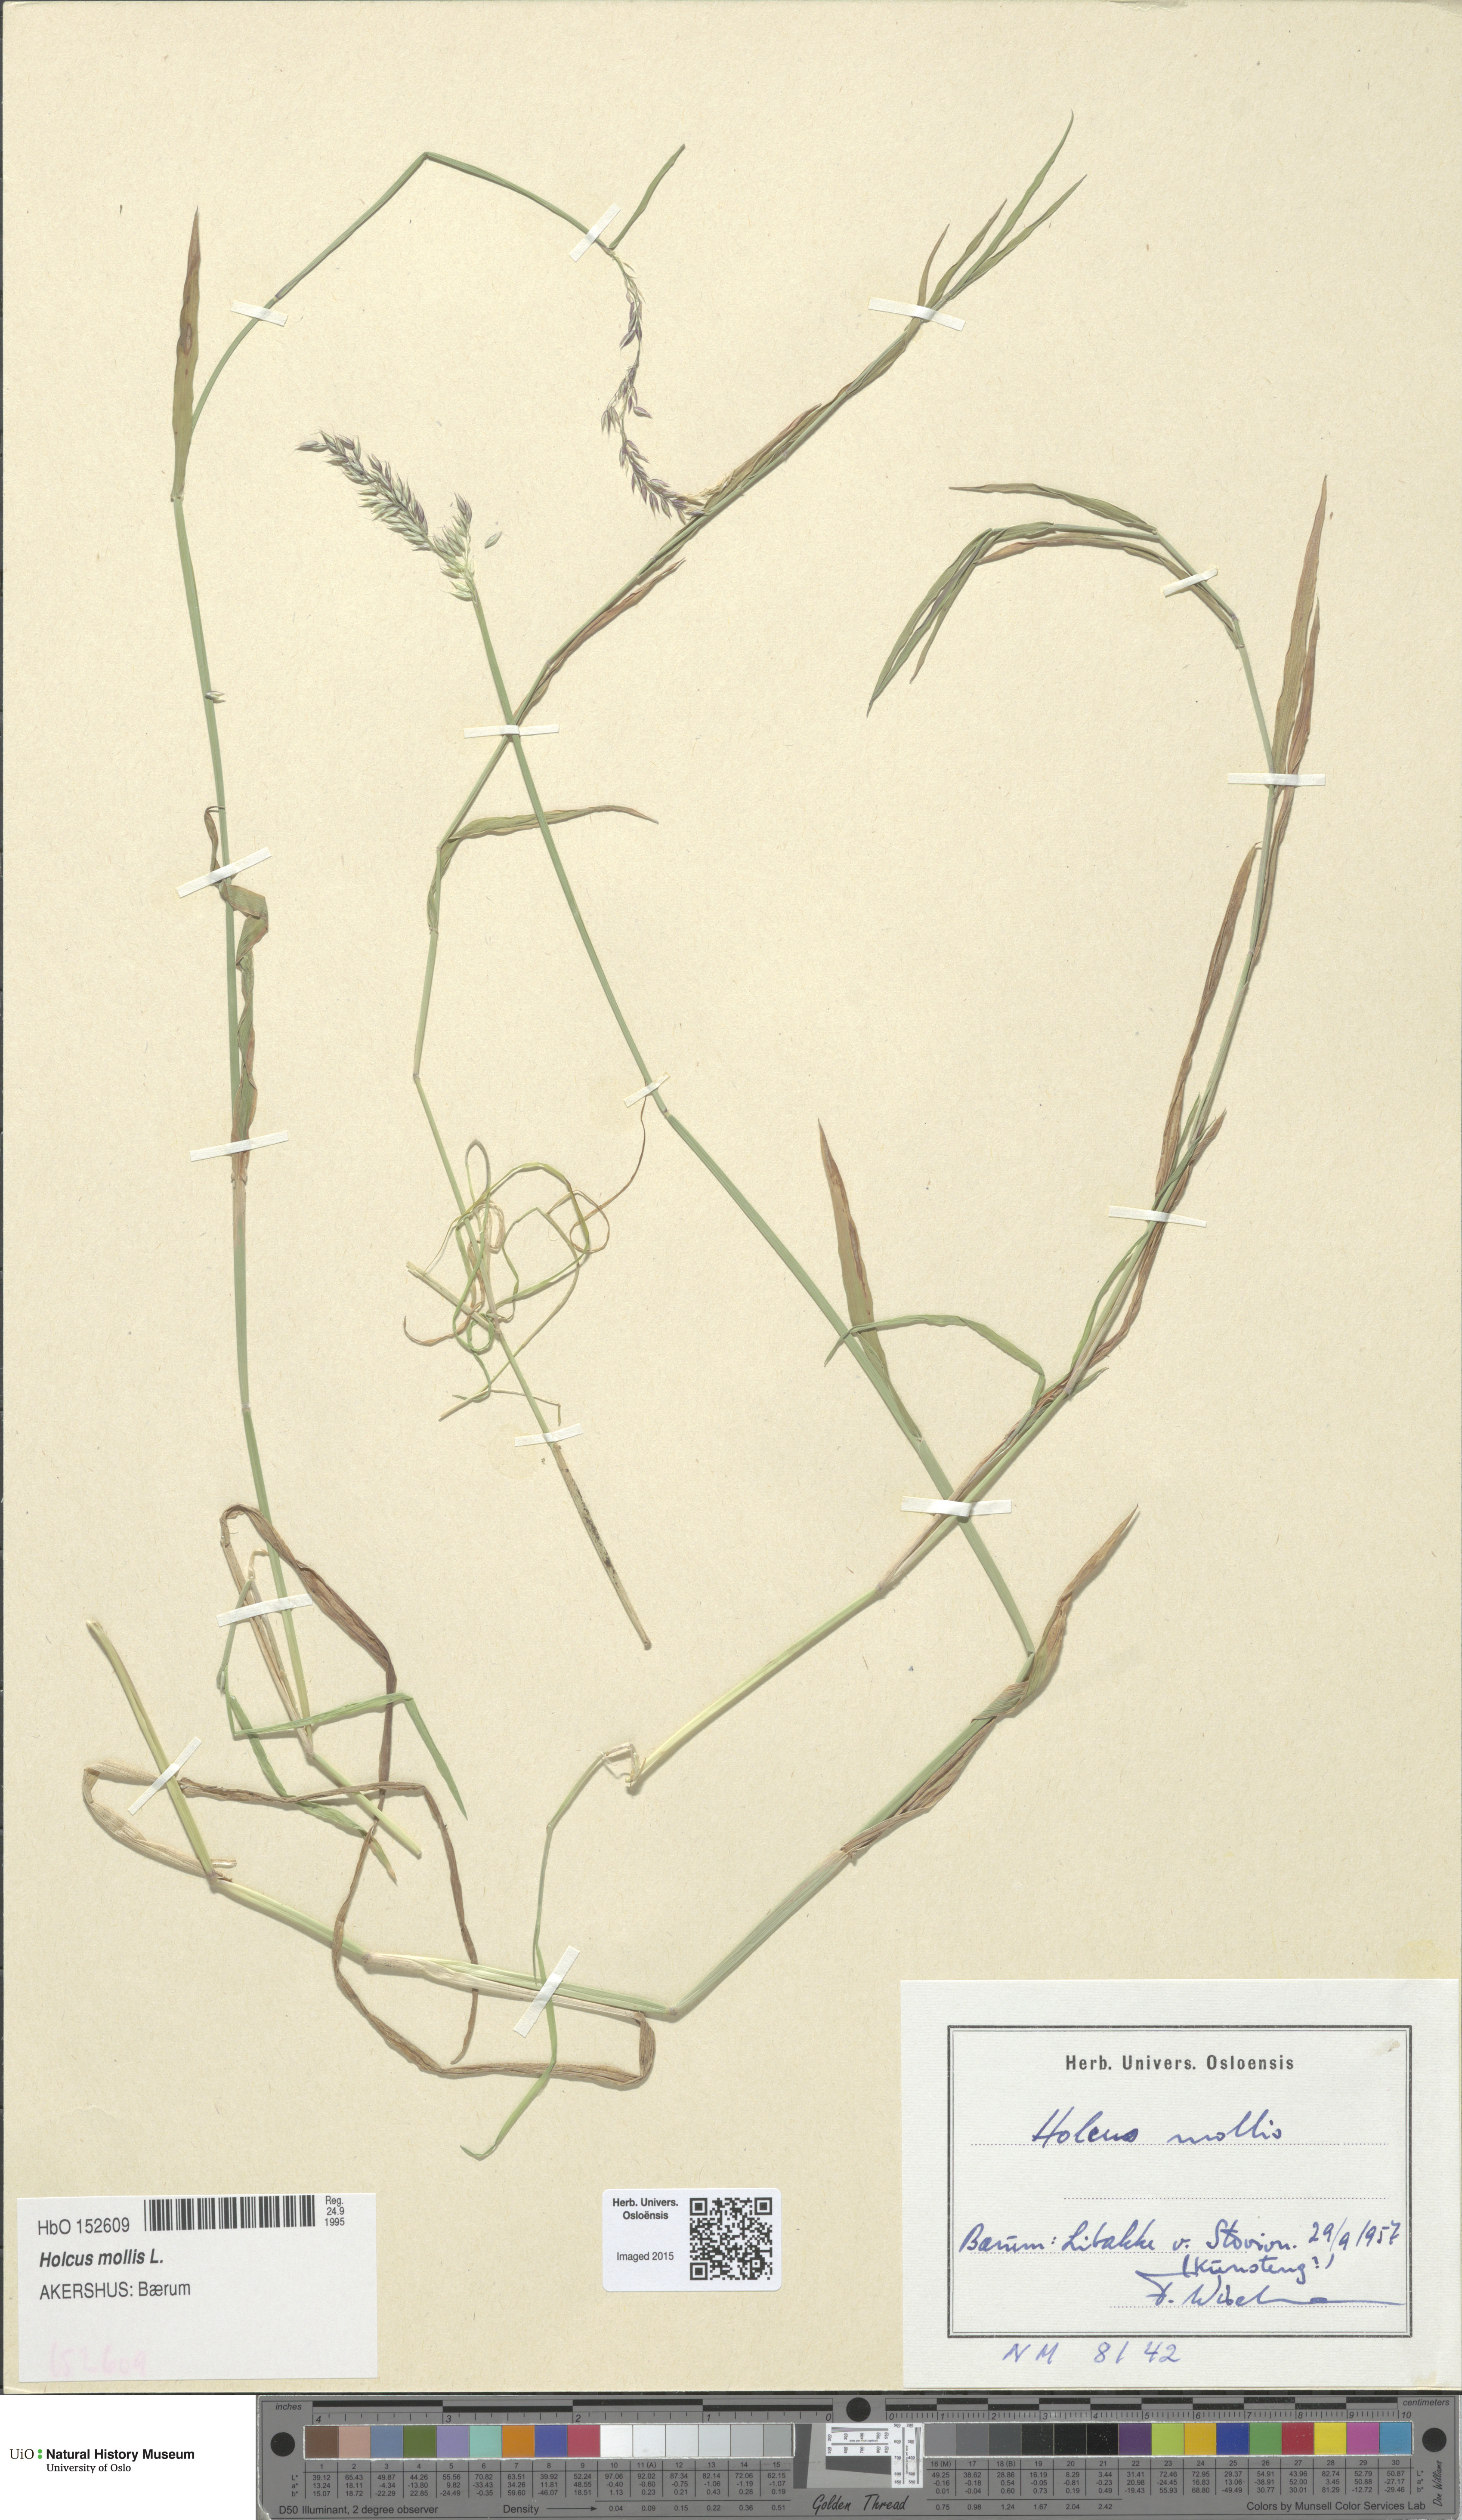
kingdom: Plantae
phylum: Tracheophyta
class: Liliopsida
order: Poales
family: Poaceae
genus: Holcus
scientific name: Holcus mollis
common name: Creeping velvetgrass
